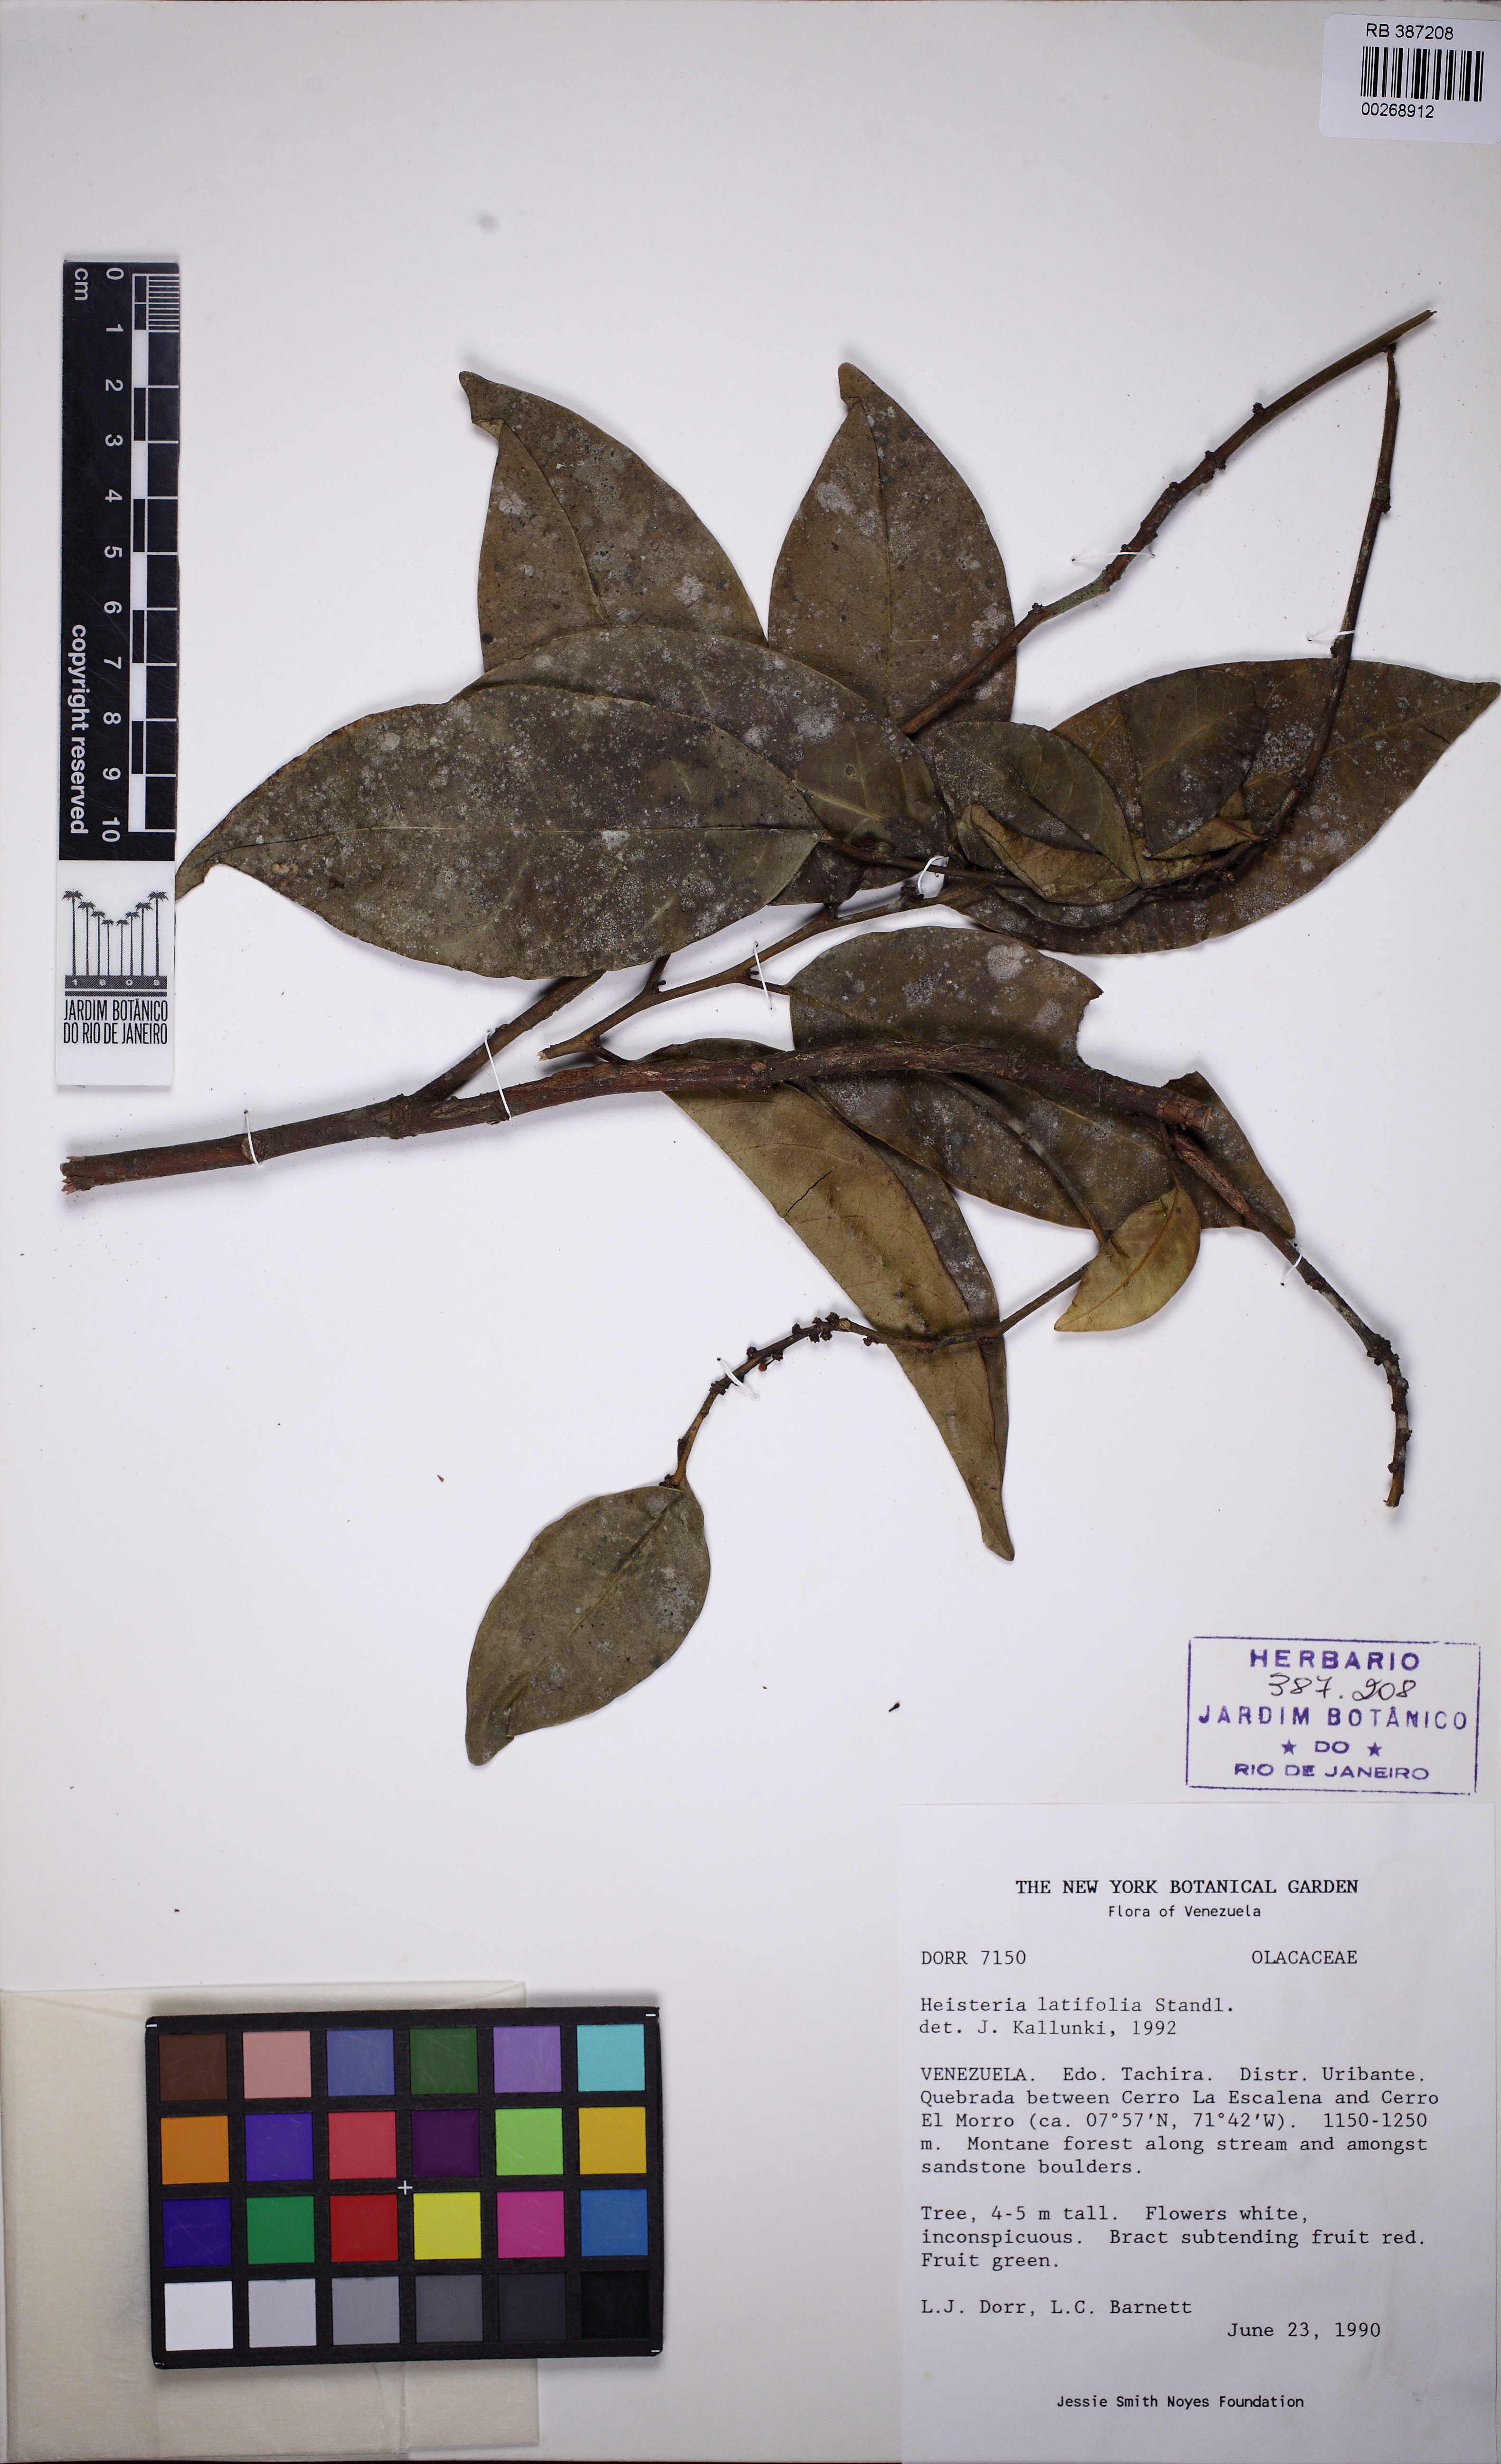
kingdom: Plantae
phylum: Tracheophyta
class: Magnoliopsida
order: Santalales
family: Erythropalaceae
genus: Heisteria
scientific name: Heisteria latifolia
